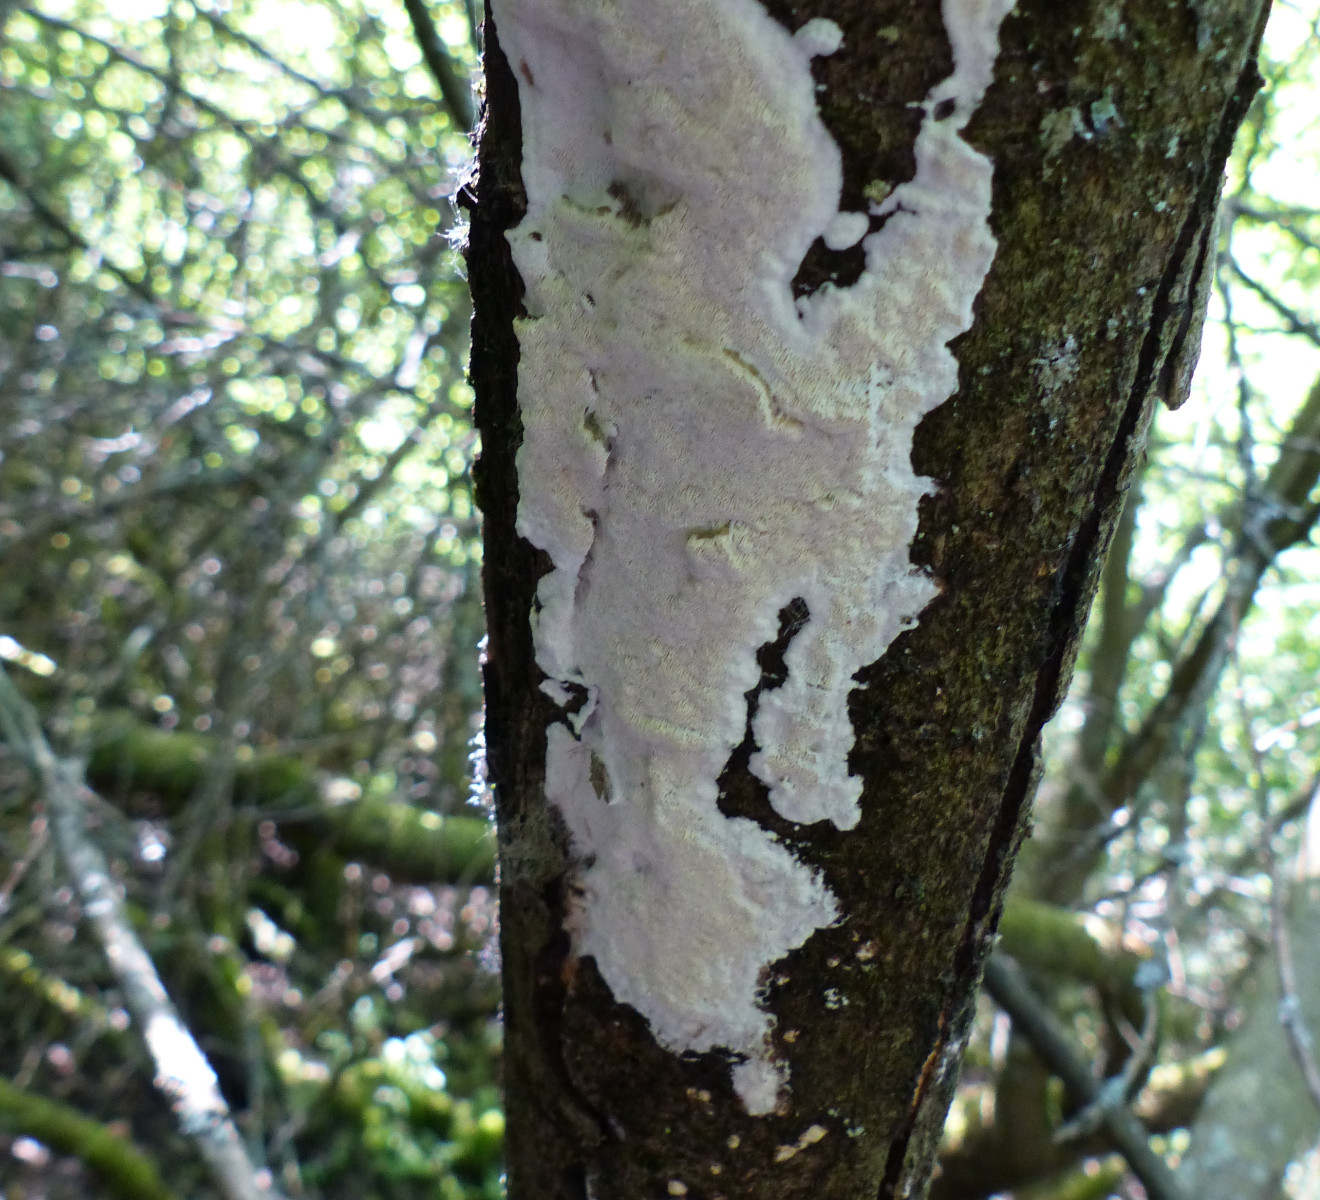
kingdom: Fungi
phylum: Basidiomycota
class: Agaricomycetes
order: Polyporales
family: Irpicaceae
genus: Resiniporus
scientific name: Resiniporus resinascens
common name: trist pastelporesvamp
